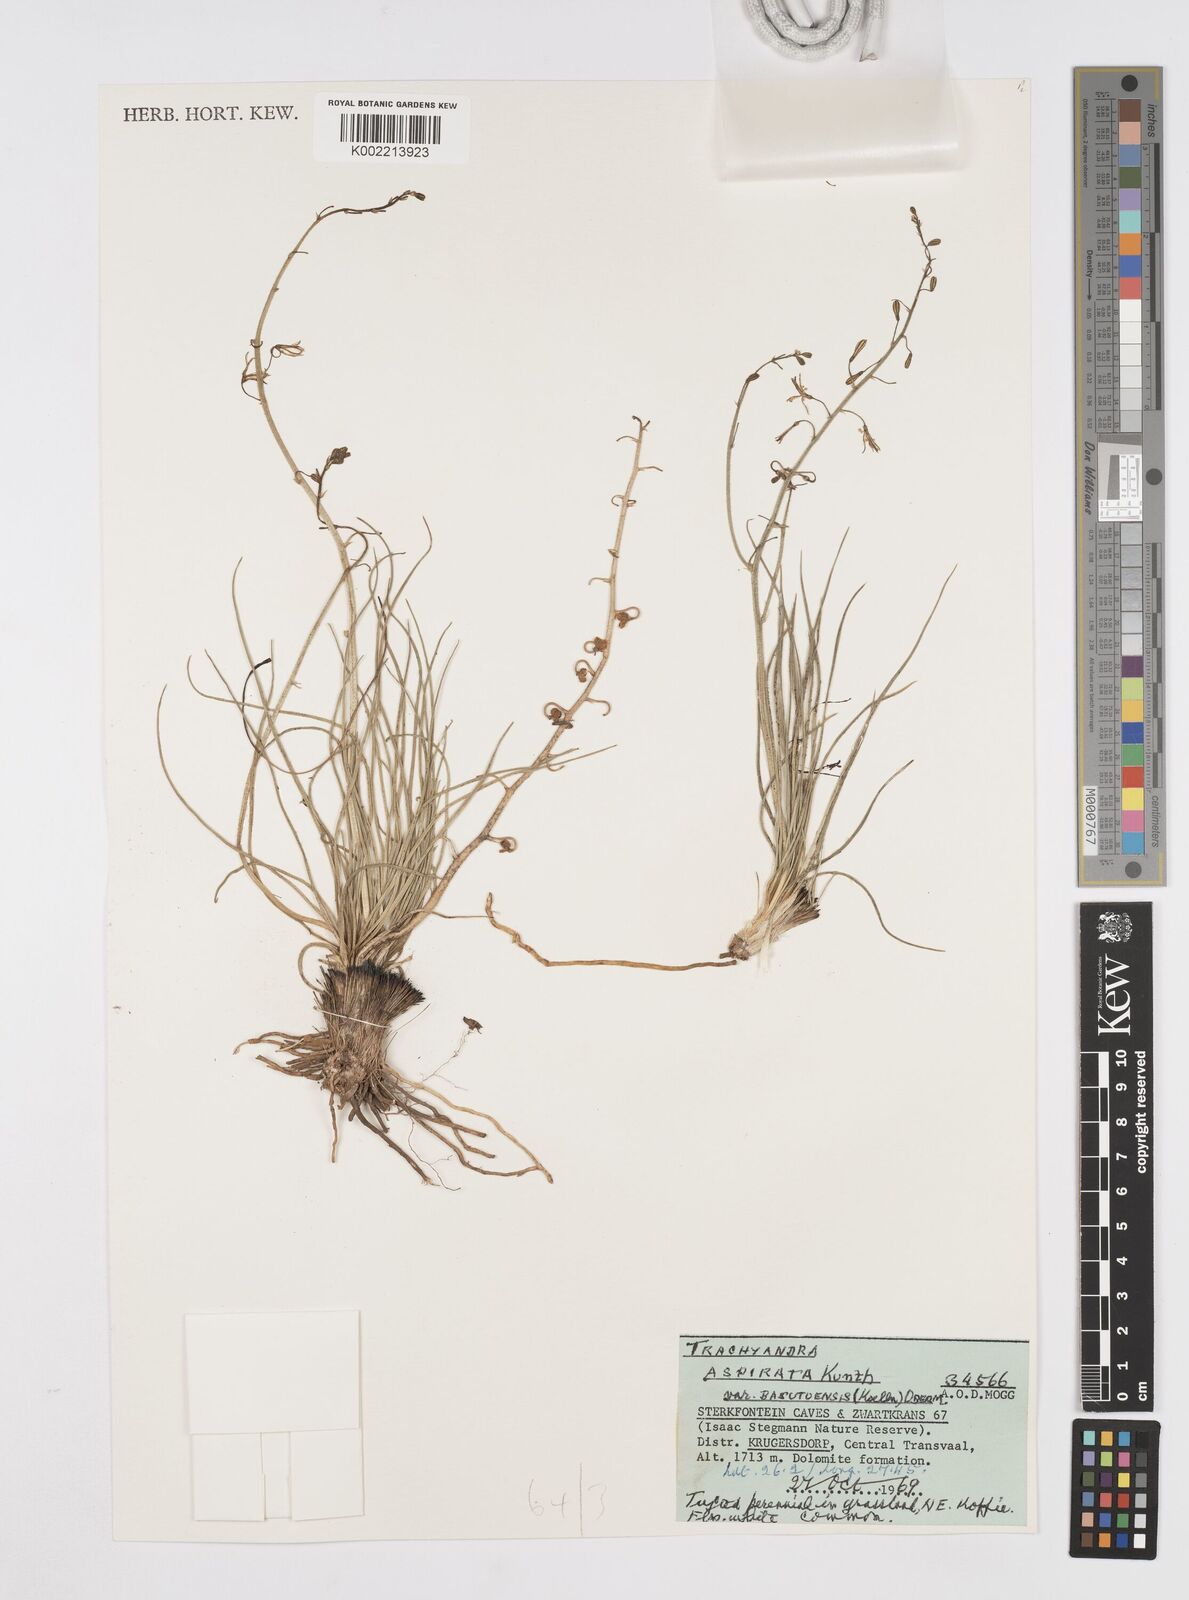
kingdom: Plantae
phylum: Tracheophyta
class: Liliopsida
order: Asparagales
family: Asphodelaceae
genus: Trachyandra
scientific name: Trachyandra asperata
